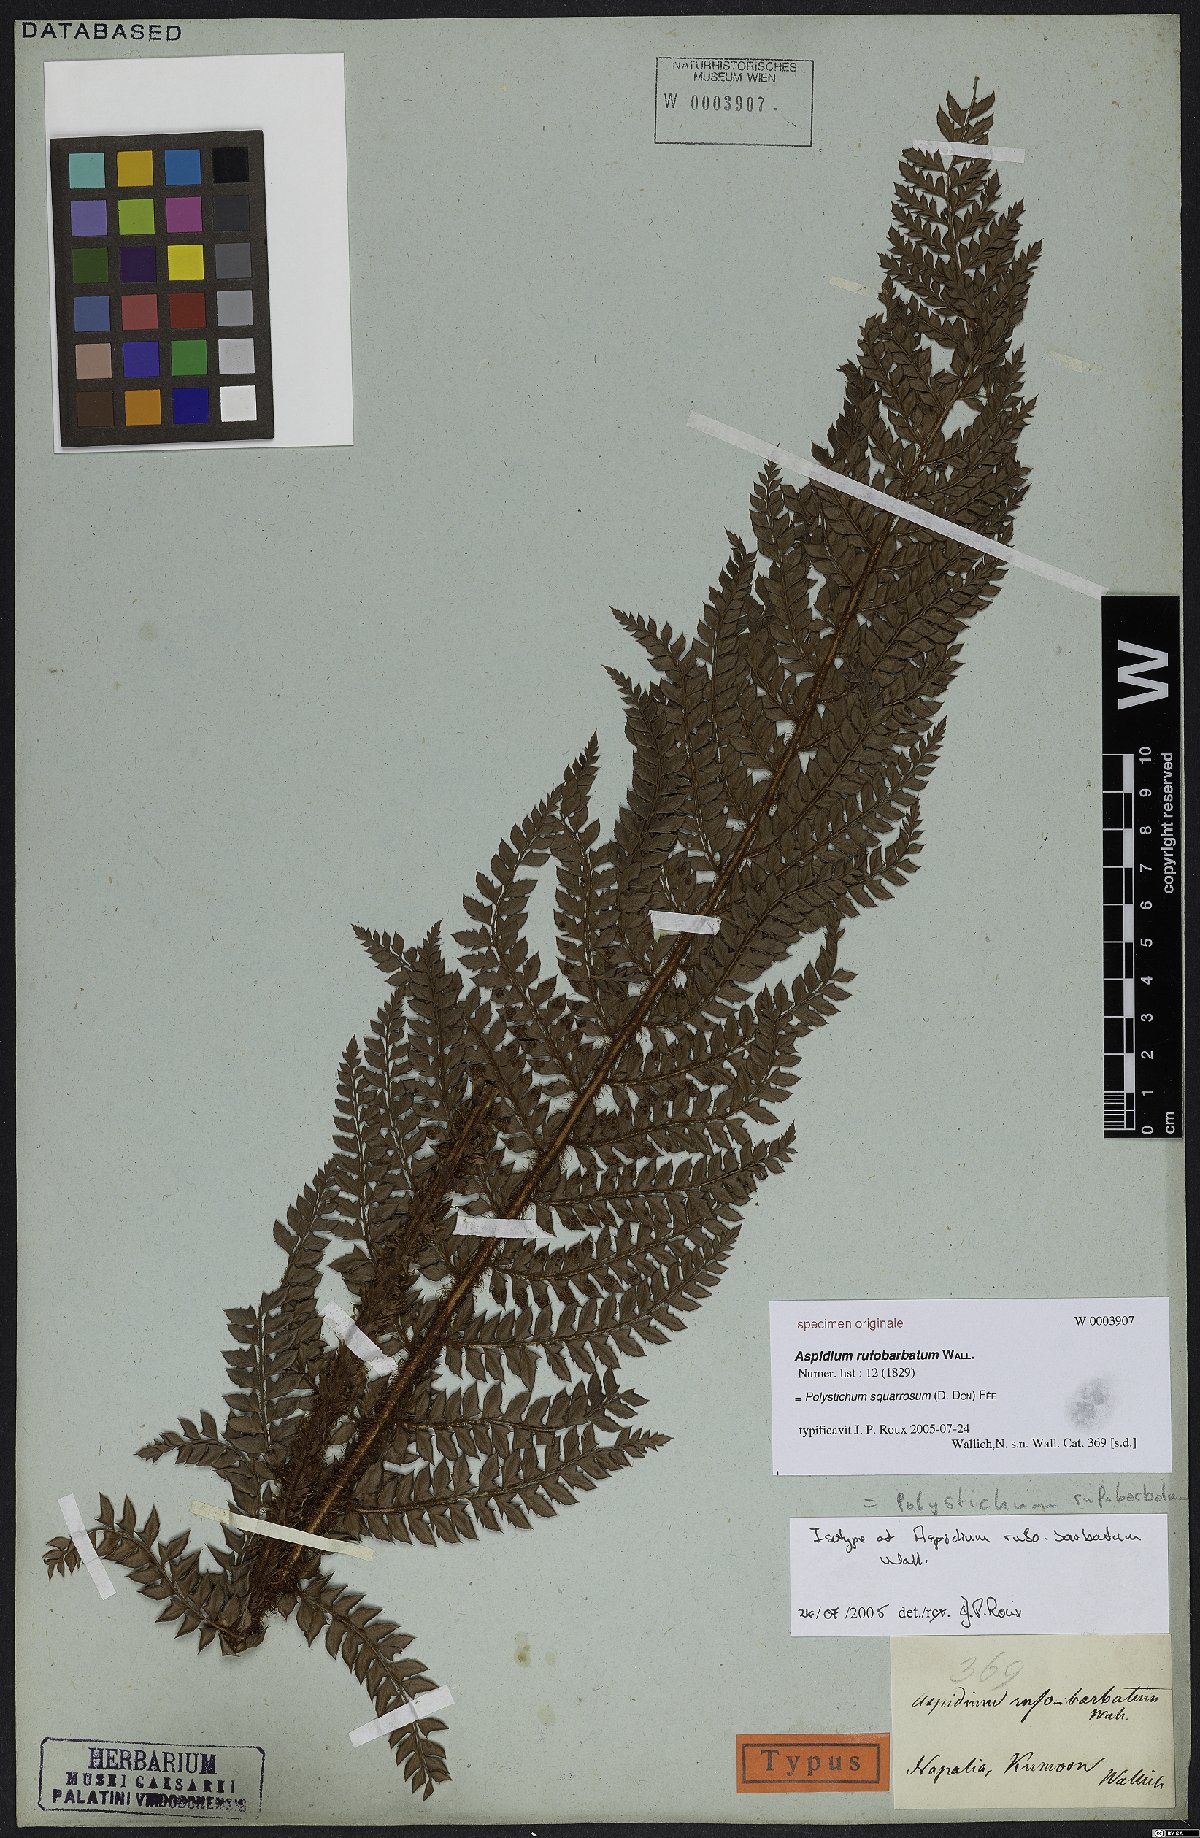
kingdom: Plantae
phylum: Tracheophyta
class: Polypodiopsida
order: Polypodiales
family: Dryopteridaceae
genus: Polystichum
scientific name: Polystichum squarrosum
